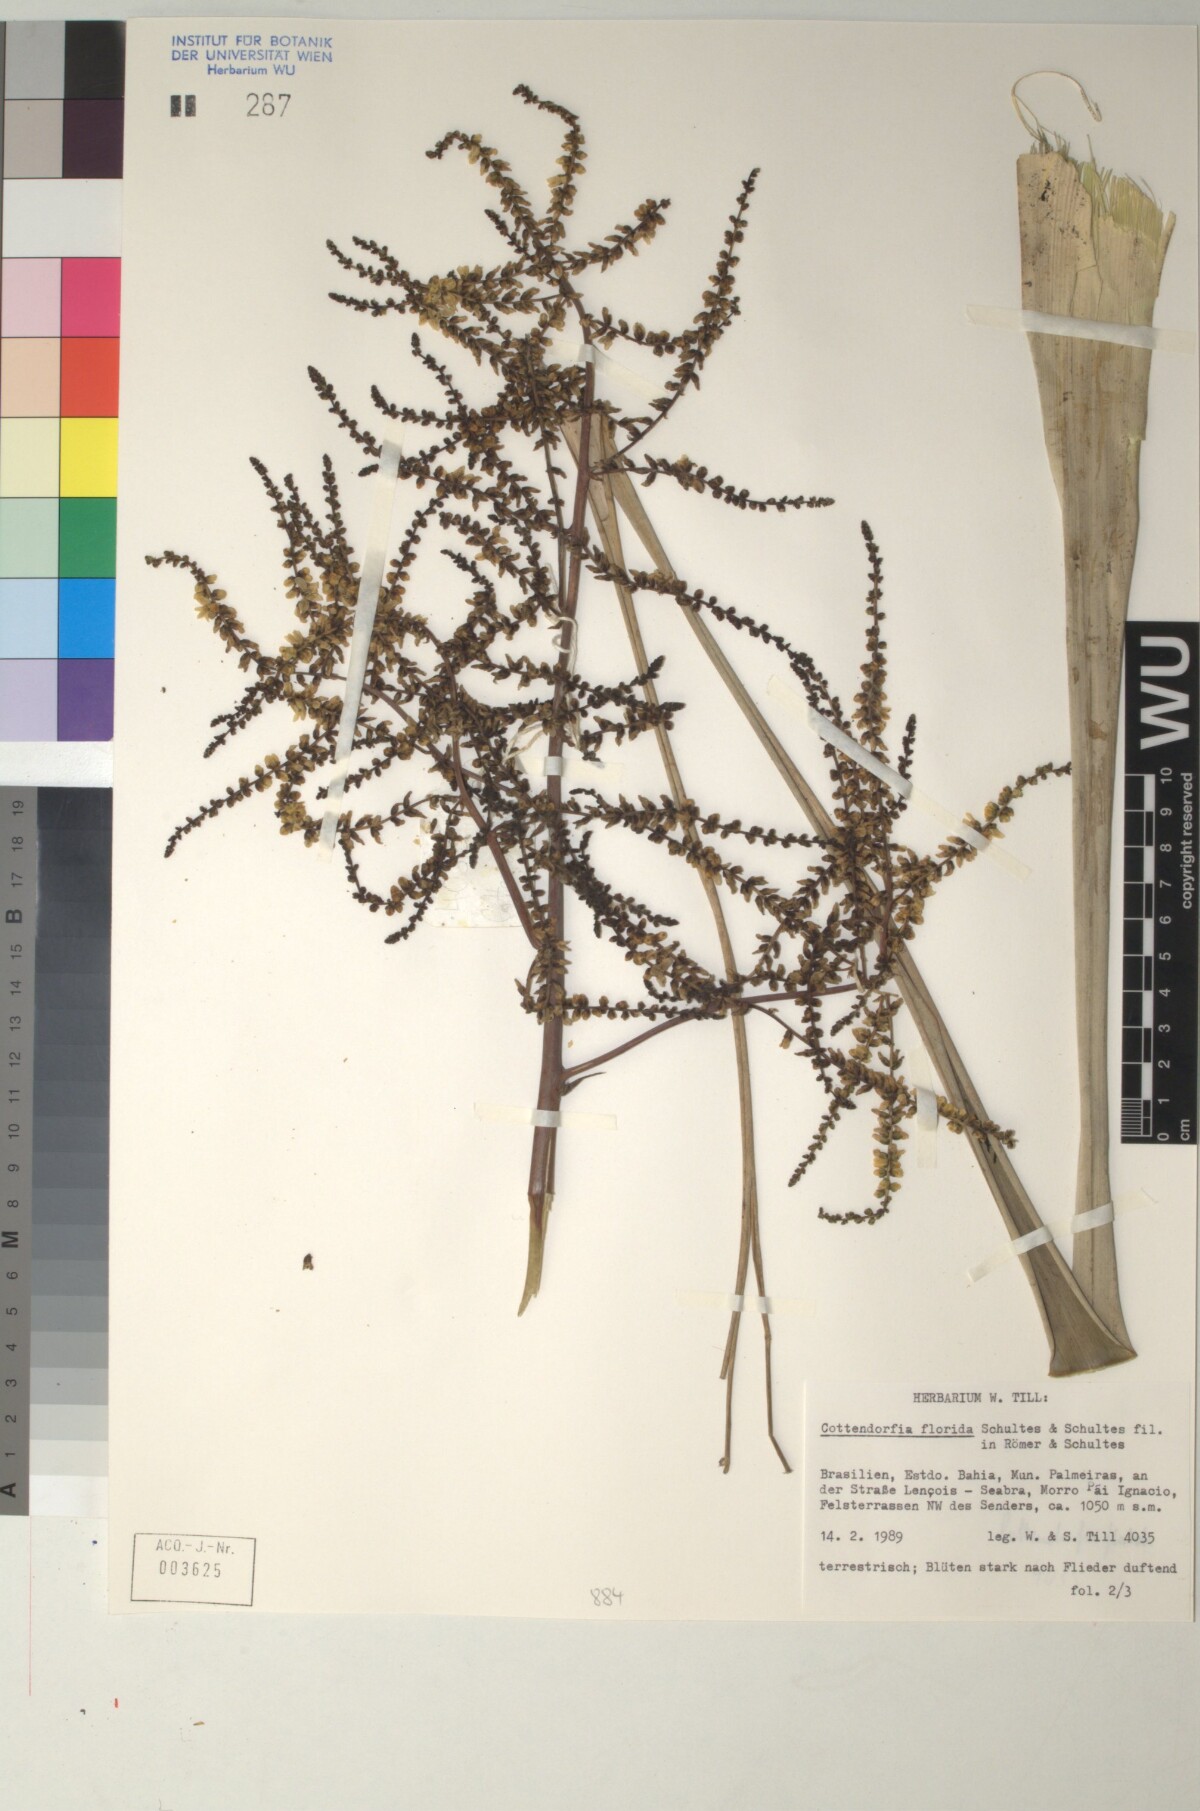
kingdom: Plantae
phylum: Tracheophyta
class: Liliopsida
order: Poales
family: Bromeliaceae
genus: Cottendorfia
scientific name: Cottendorfia florida
